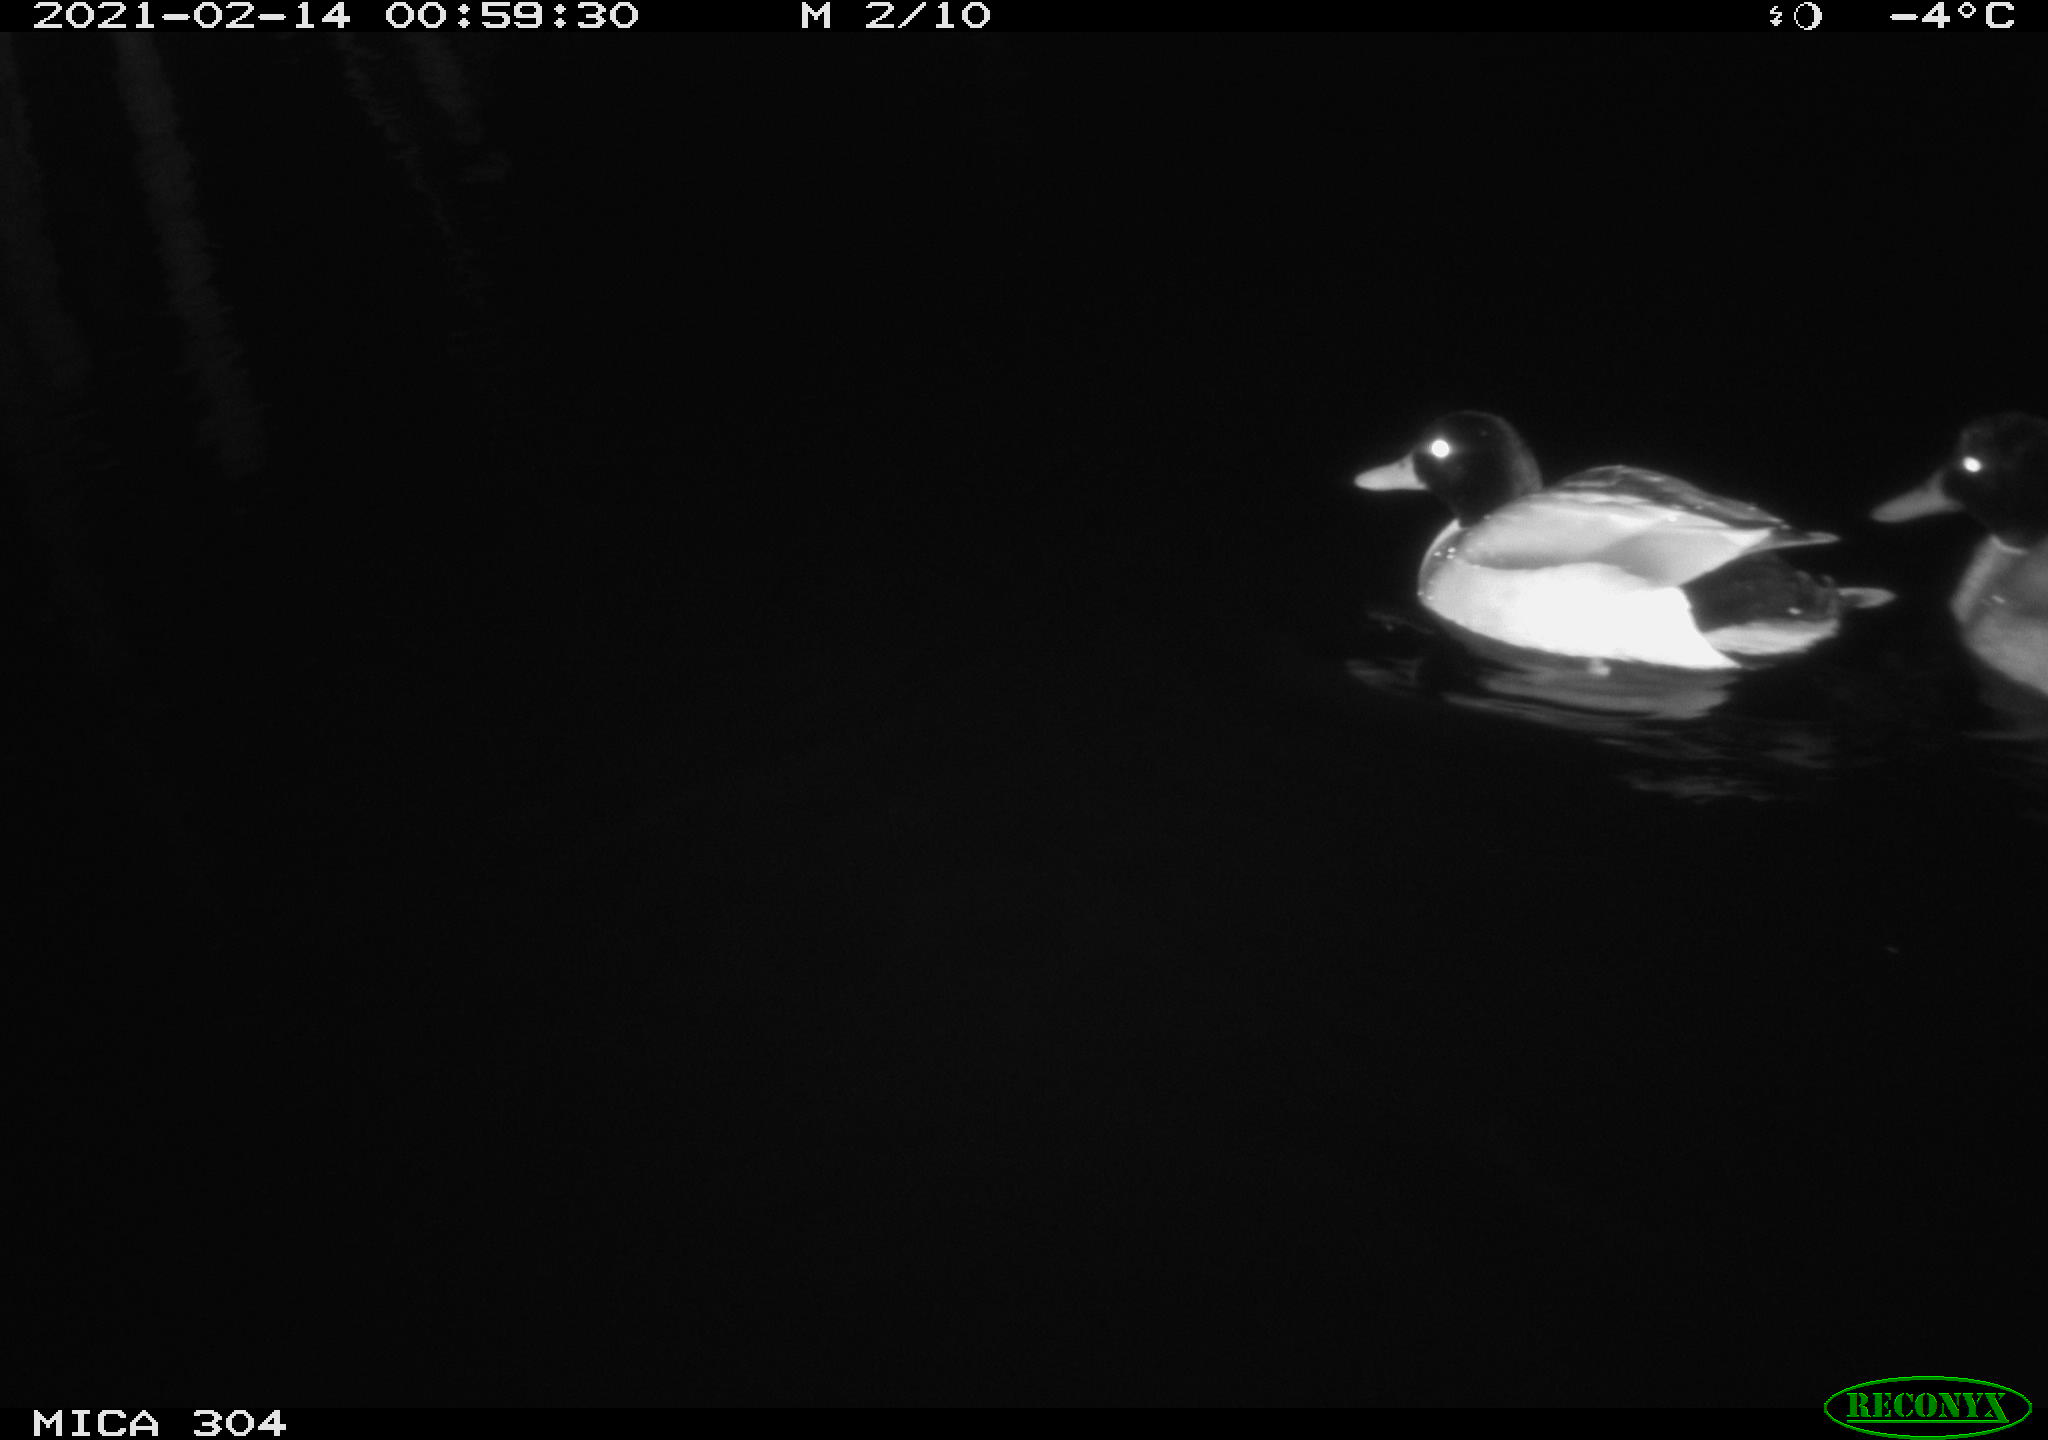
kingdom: Animalia
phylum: Chordata
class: Aves
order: Anseriformes
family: Anatidae
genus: Anas
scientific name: Anas platyrhynchos
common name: Mallard
